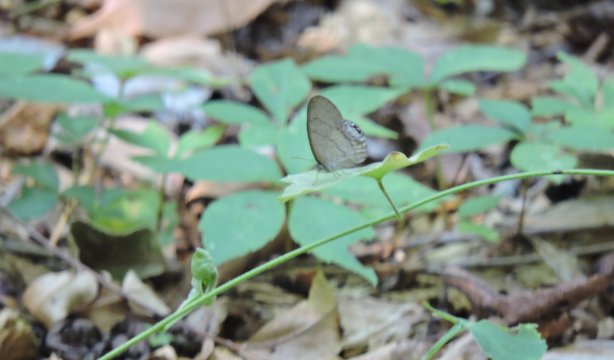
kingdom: Animalia
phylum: Arthropoda
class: Insecta
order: Lepidoptera
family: Nymphalidae
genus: Euptychia
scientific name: Euptychia cornelius
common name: Gemmed Satyr
